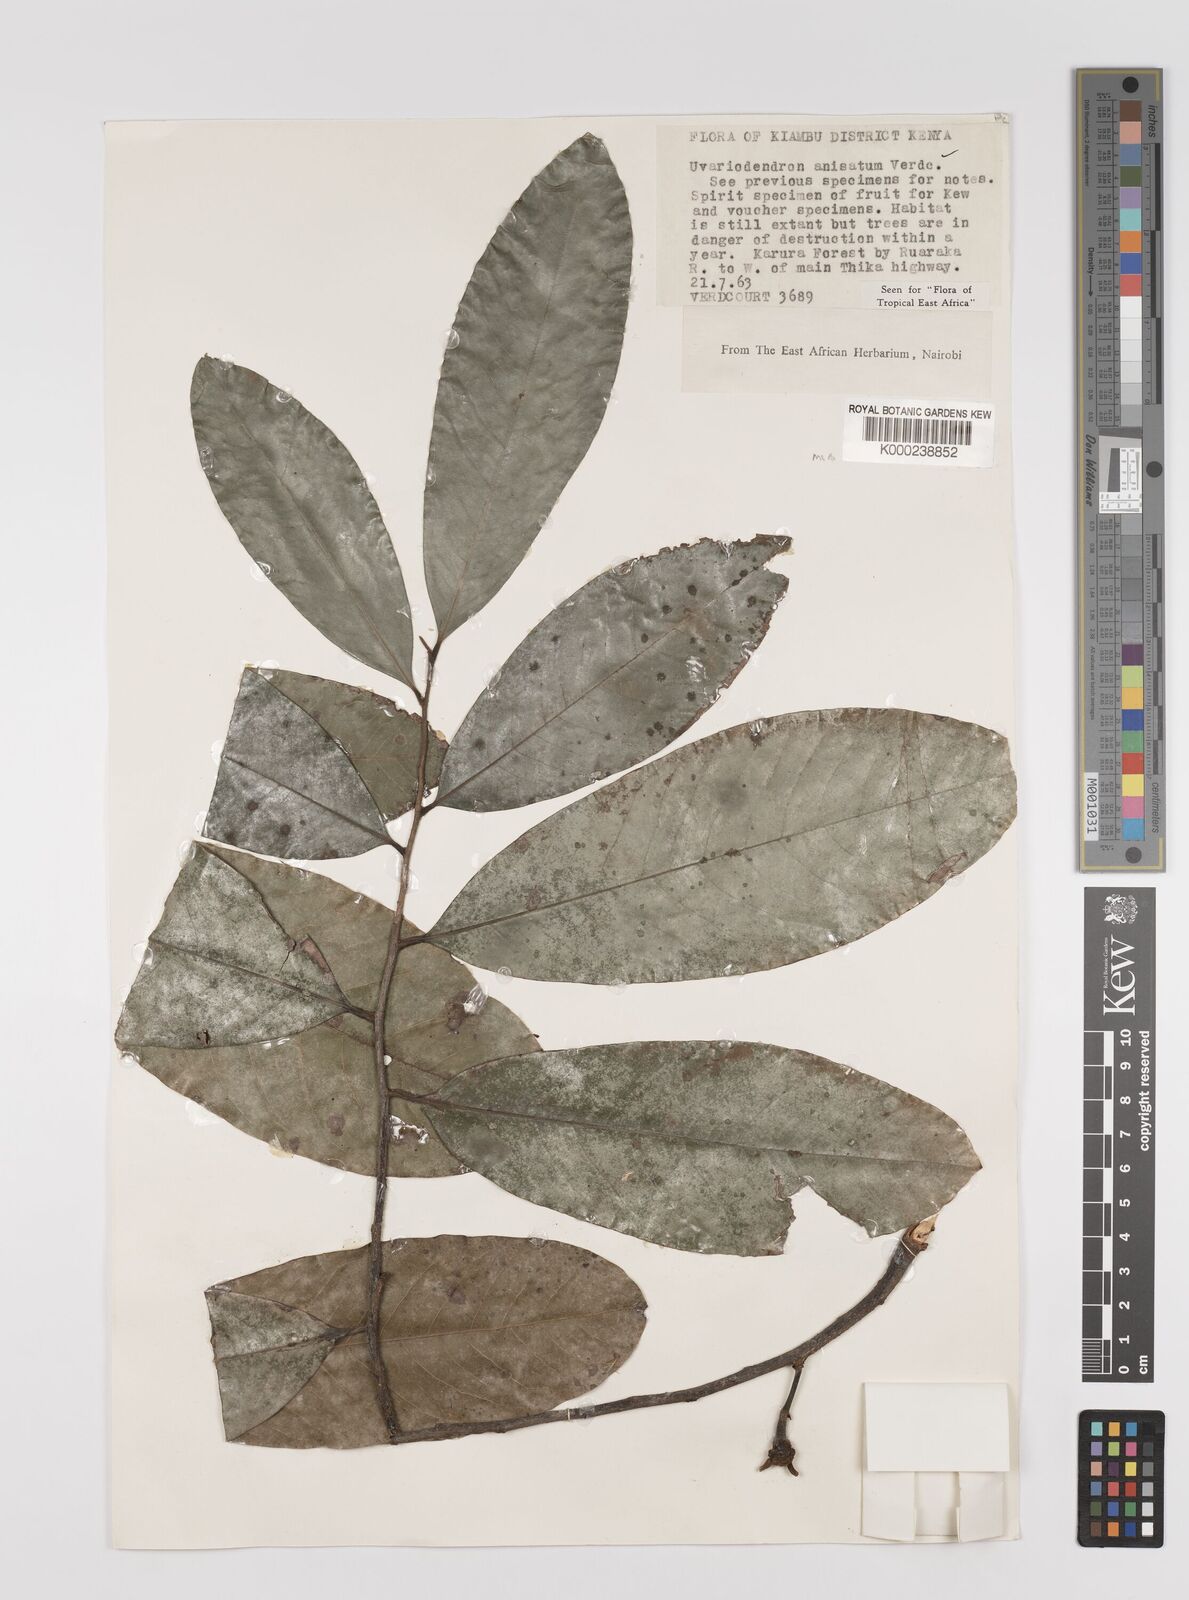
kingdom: Plantae
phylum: Tracheophyta
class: Magnoliopsida
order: Magnoliales
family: Annonaceae
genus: Uvariodendron
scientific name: Uvariodendron anisatum
